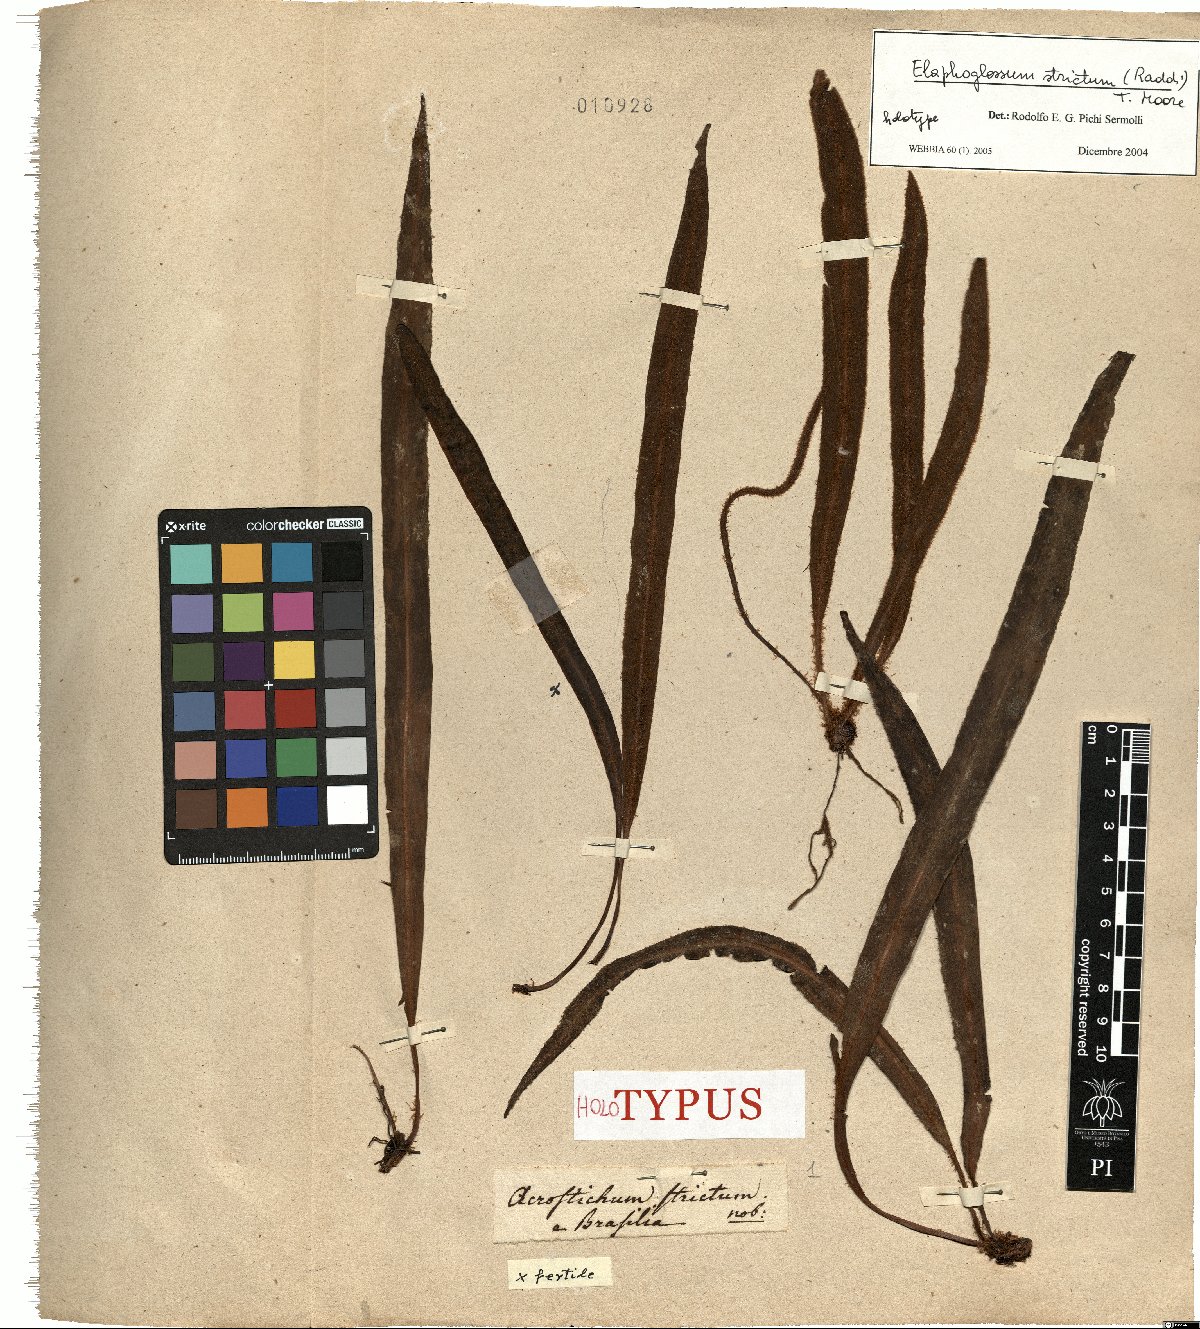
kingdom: Plantae
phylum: Tracheophyta
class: Polypodiopsida
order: Polypodiales
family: Dryopteridaceae
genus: Elaphoglossum
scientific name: Elaphoglossum curvans
